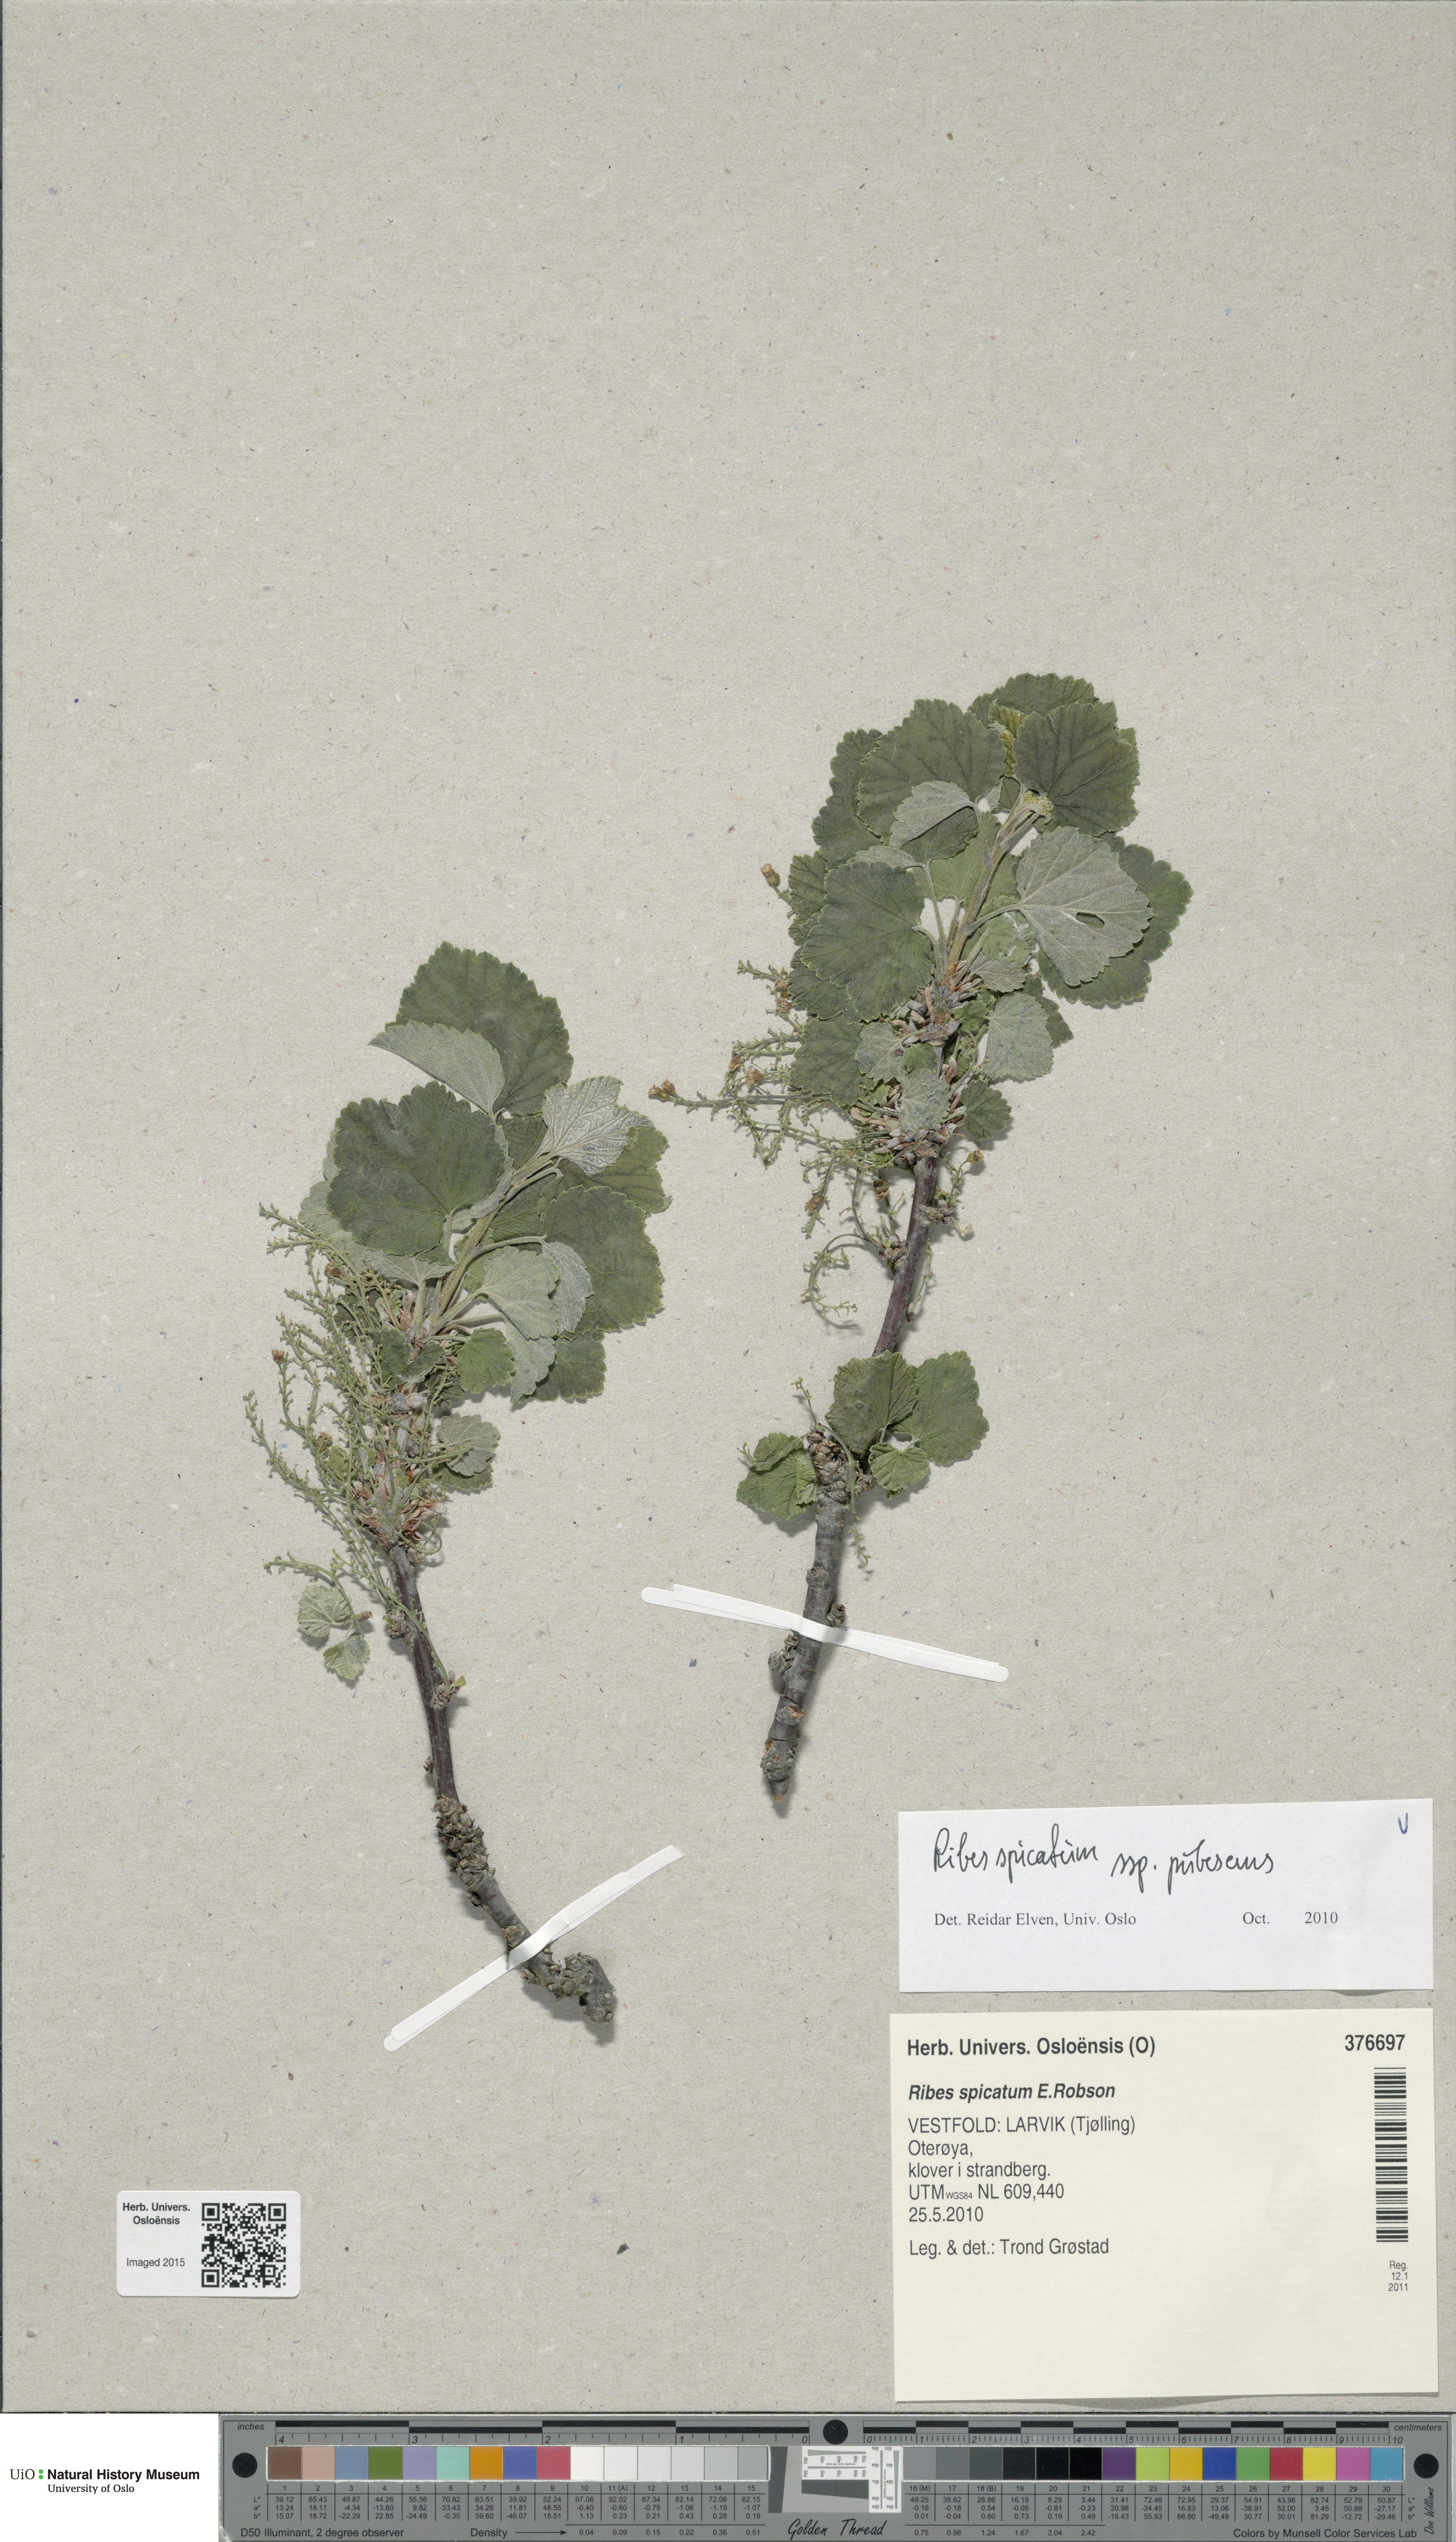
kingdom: Plantae
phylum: Tracheophyta
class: Magnoliopsida
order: Saxifragales
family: Grossulariaceae
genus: Ribes
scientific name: Ribes spicatum
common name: Downy currant
